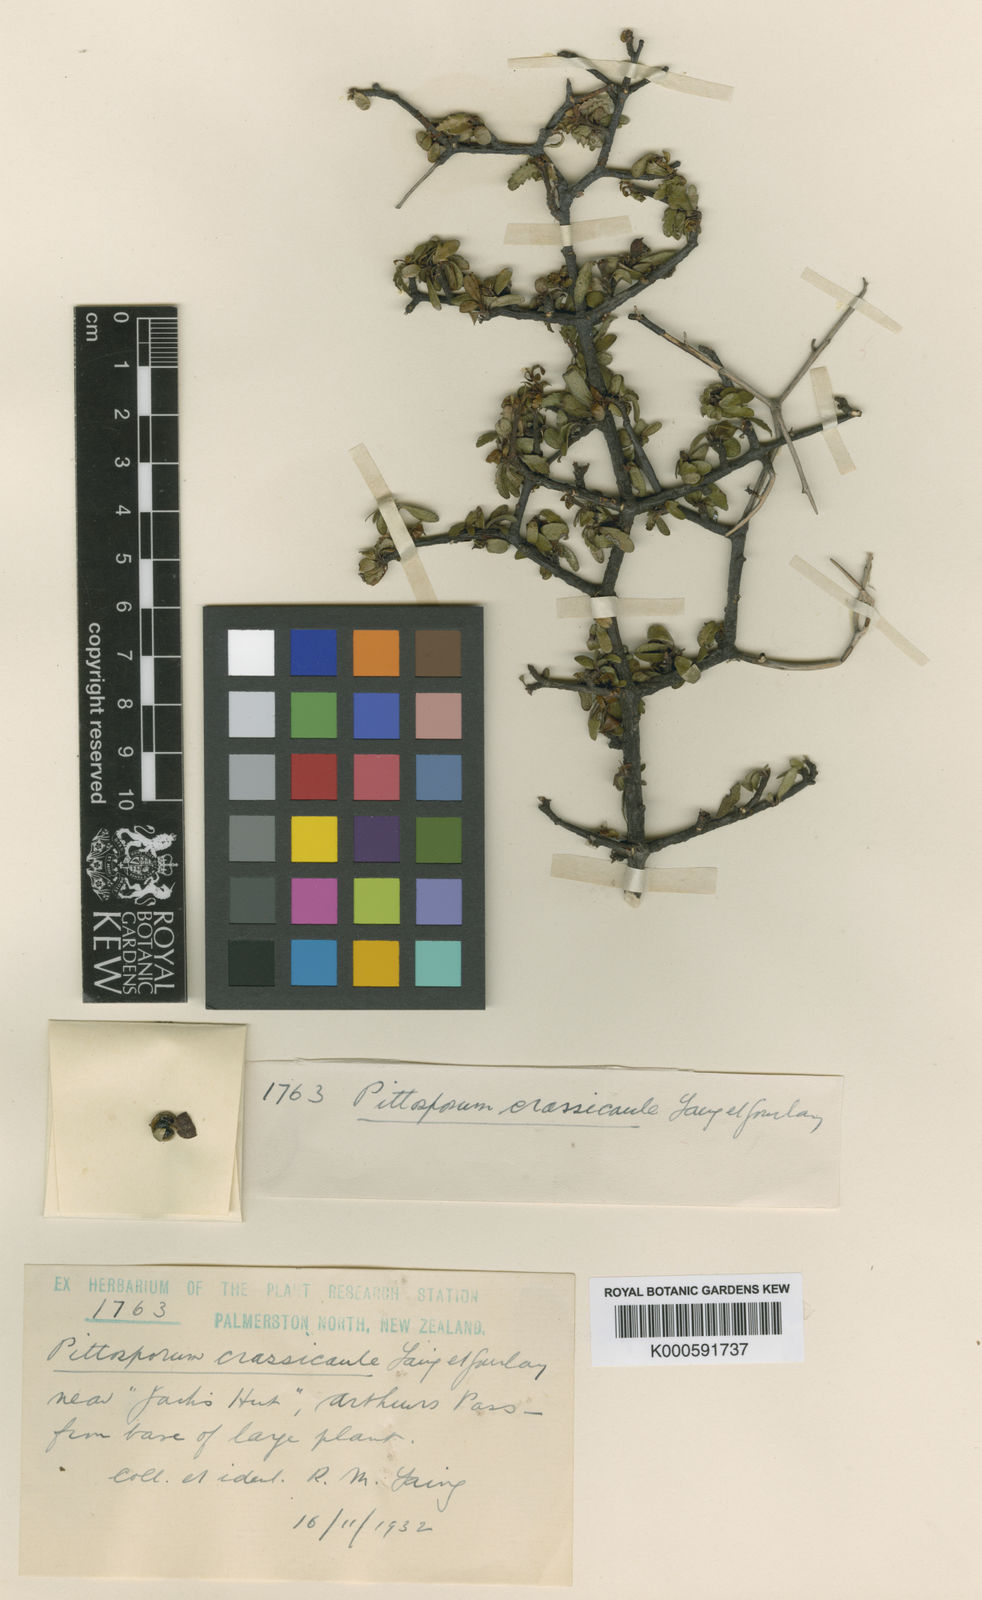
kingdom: Plantae
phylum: Tracheophyta
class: Magnoliopsida
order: Apiales
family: Pittosporaceae
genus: Pittosporum
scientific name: Pittosporum crassicaule
